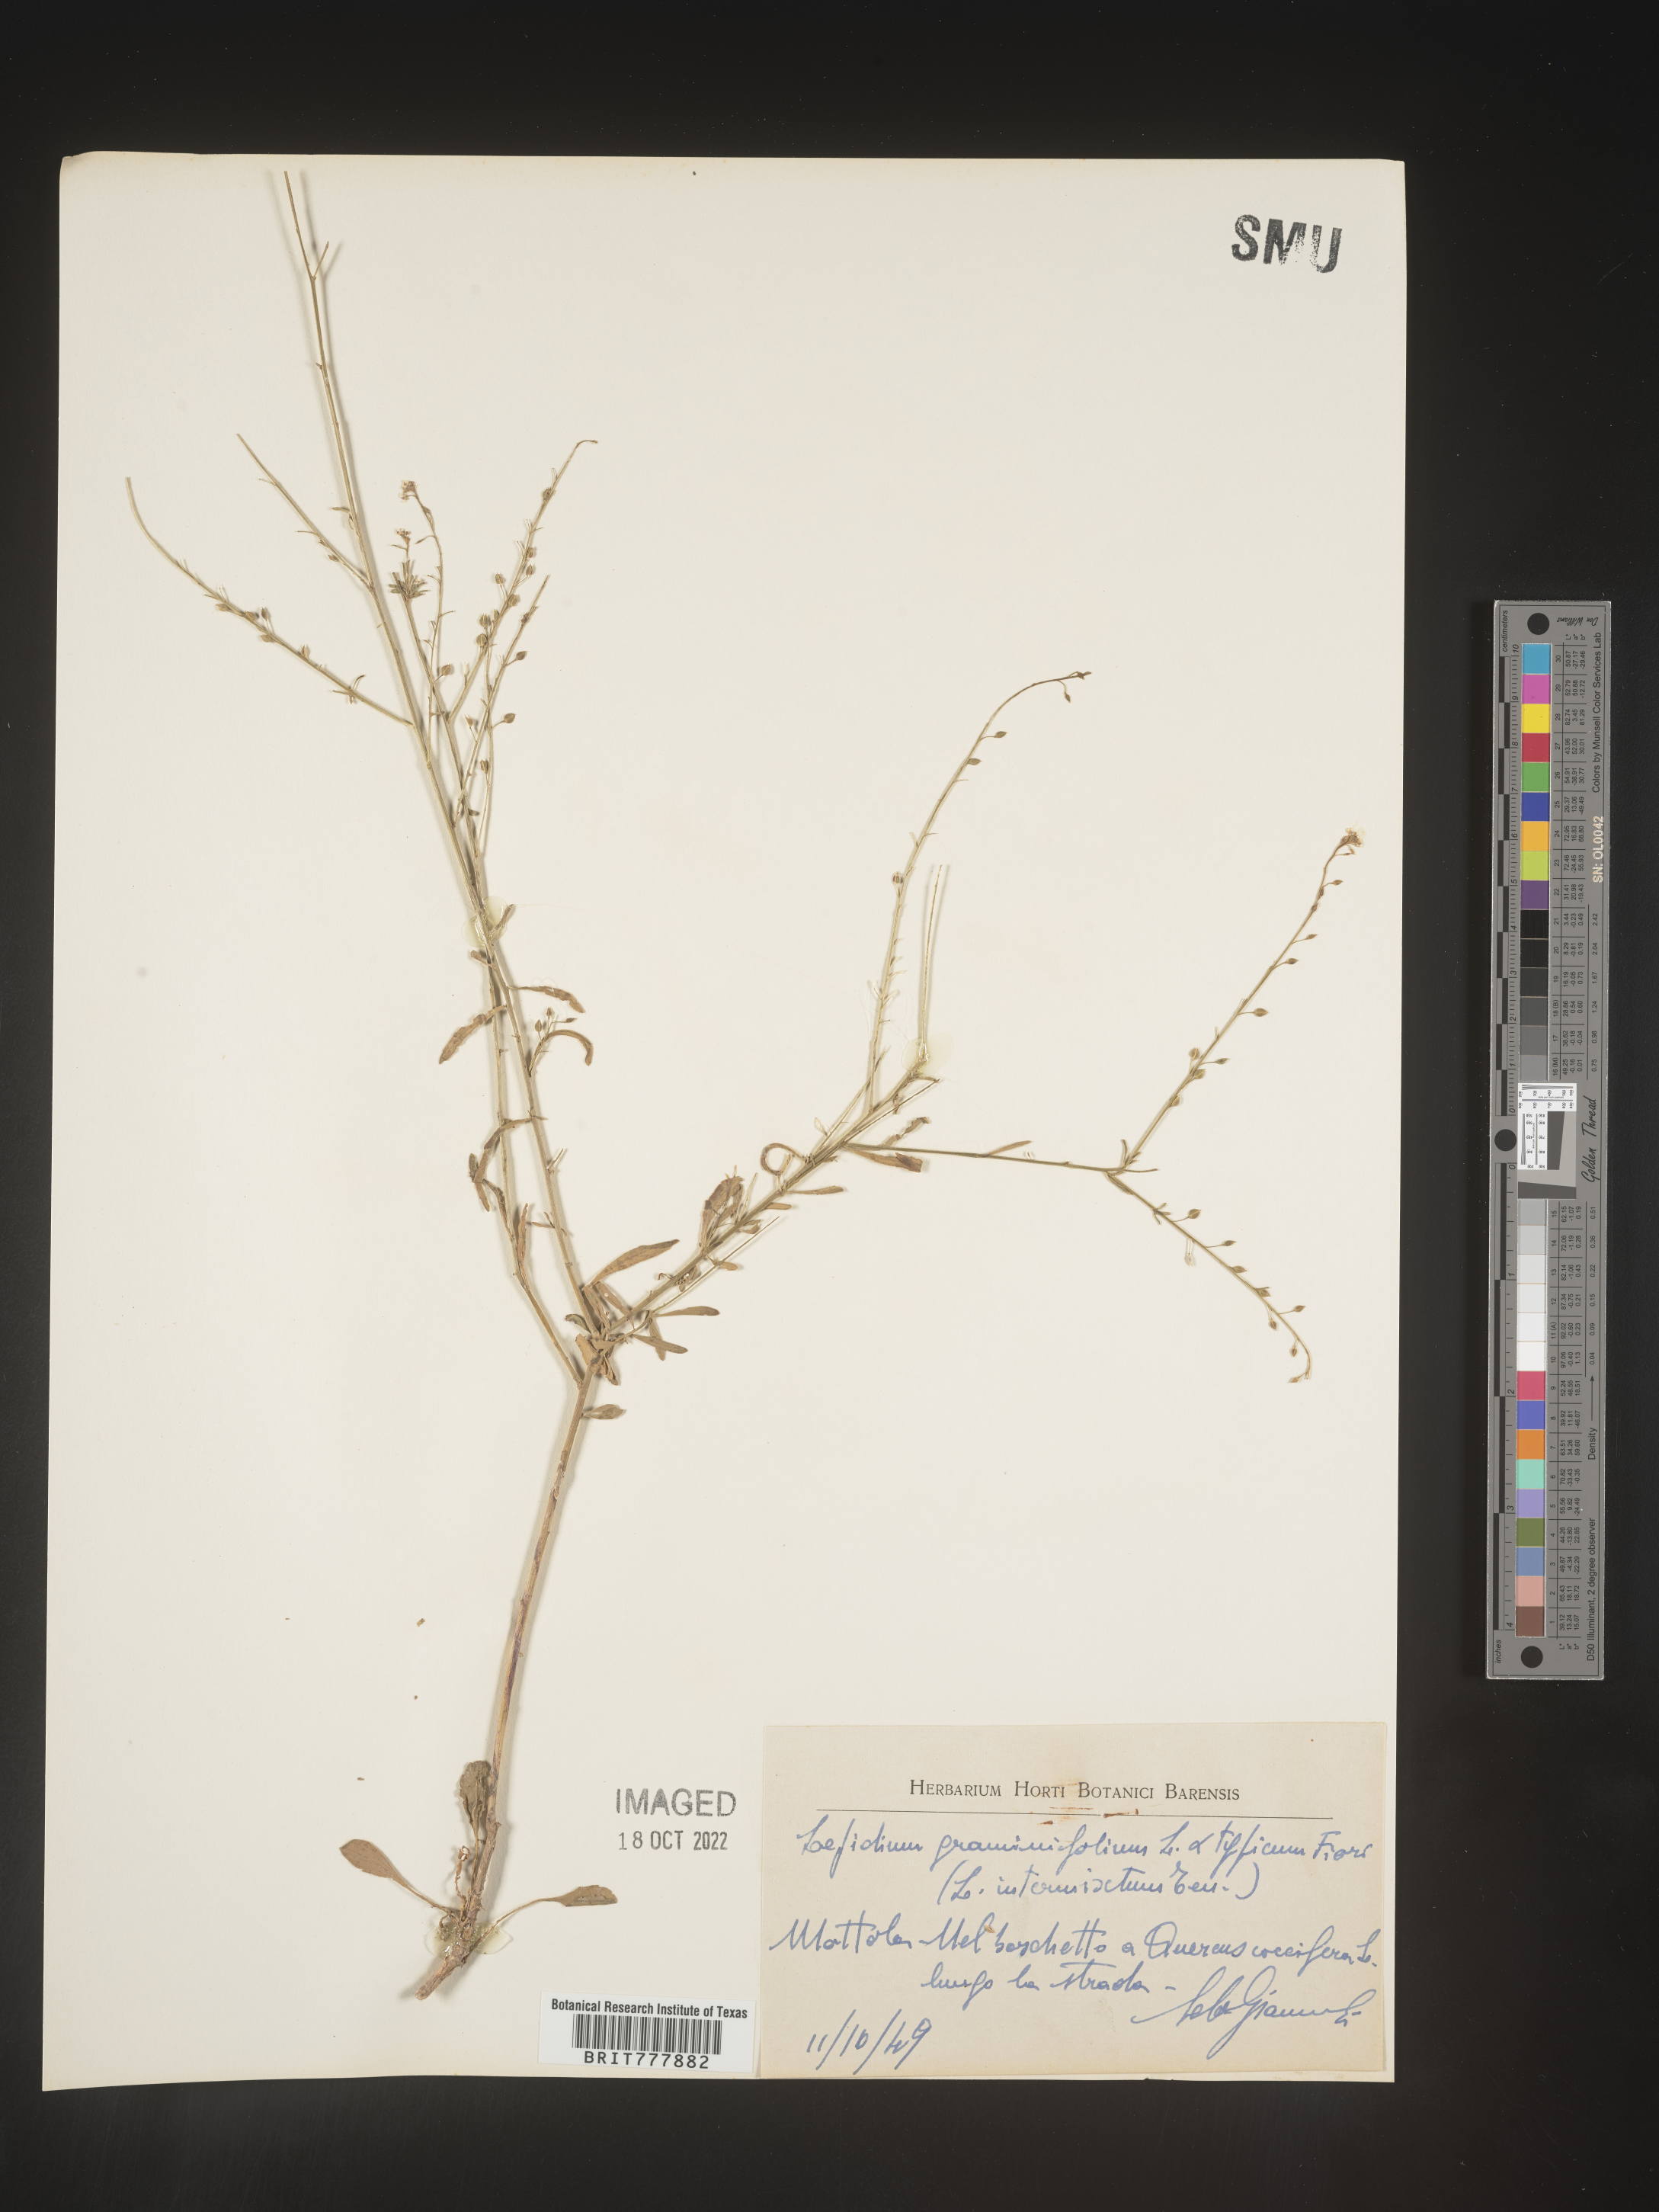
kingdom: Plantae
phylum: Tracheophyta
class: Magnoliopsida
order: Brassicales
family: Brassicaceae
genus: Lepidium
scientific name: Lepidium
